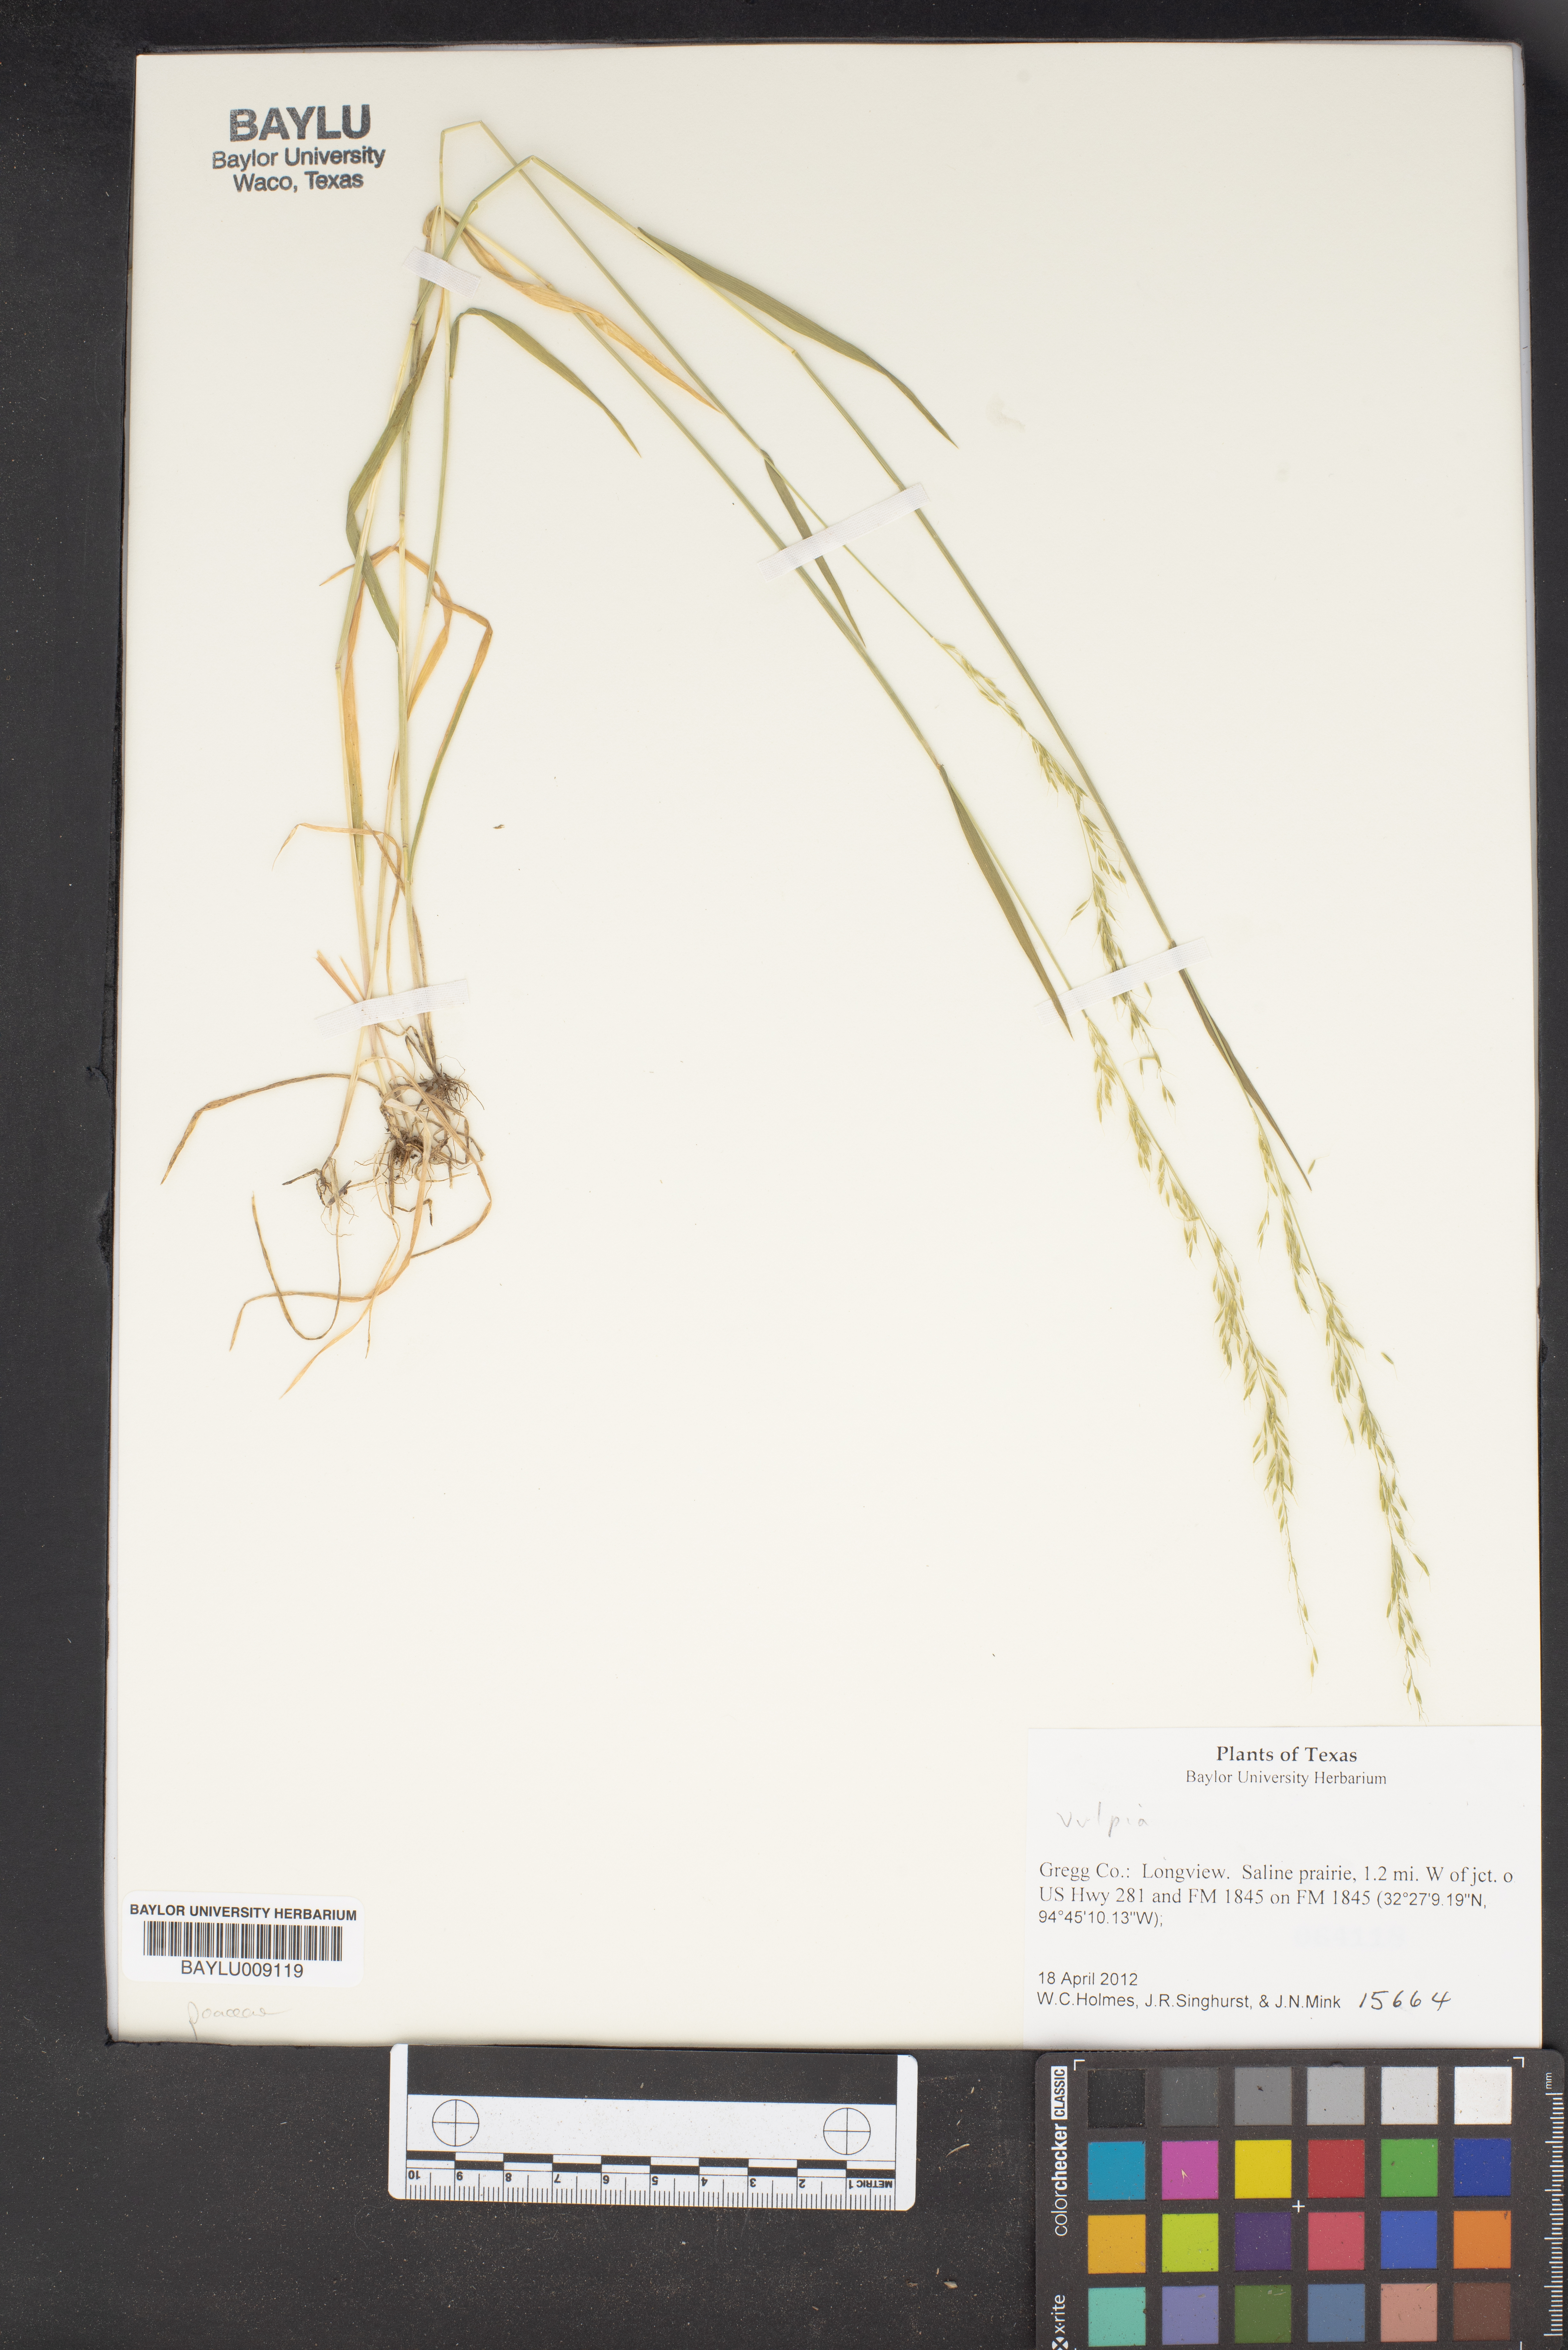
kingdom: Plantae
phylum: Tracheophyta
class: Liliopsida
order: Poales
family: Poaceae
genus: Festuca
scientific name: Festuca
